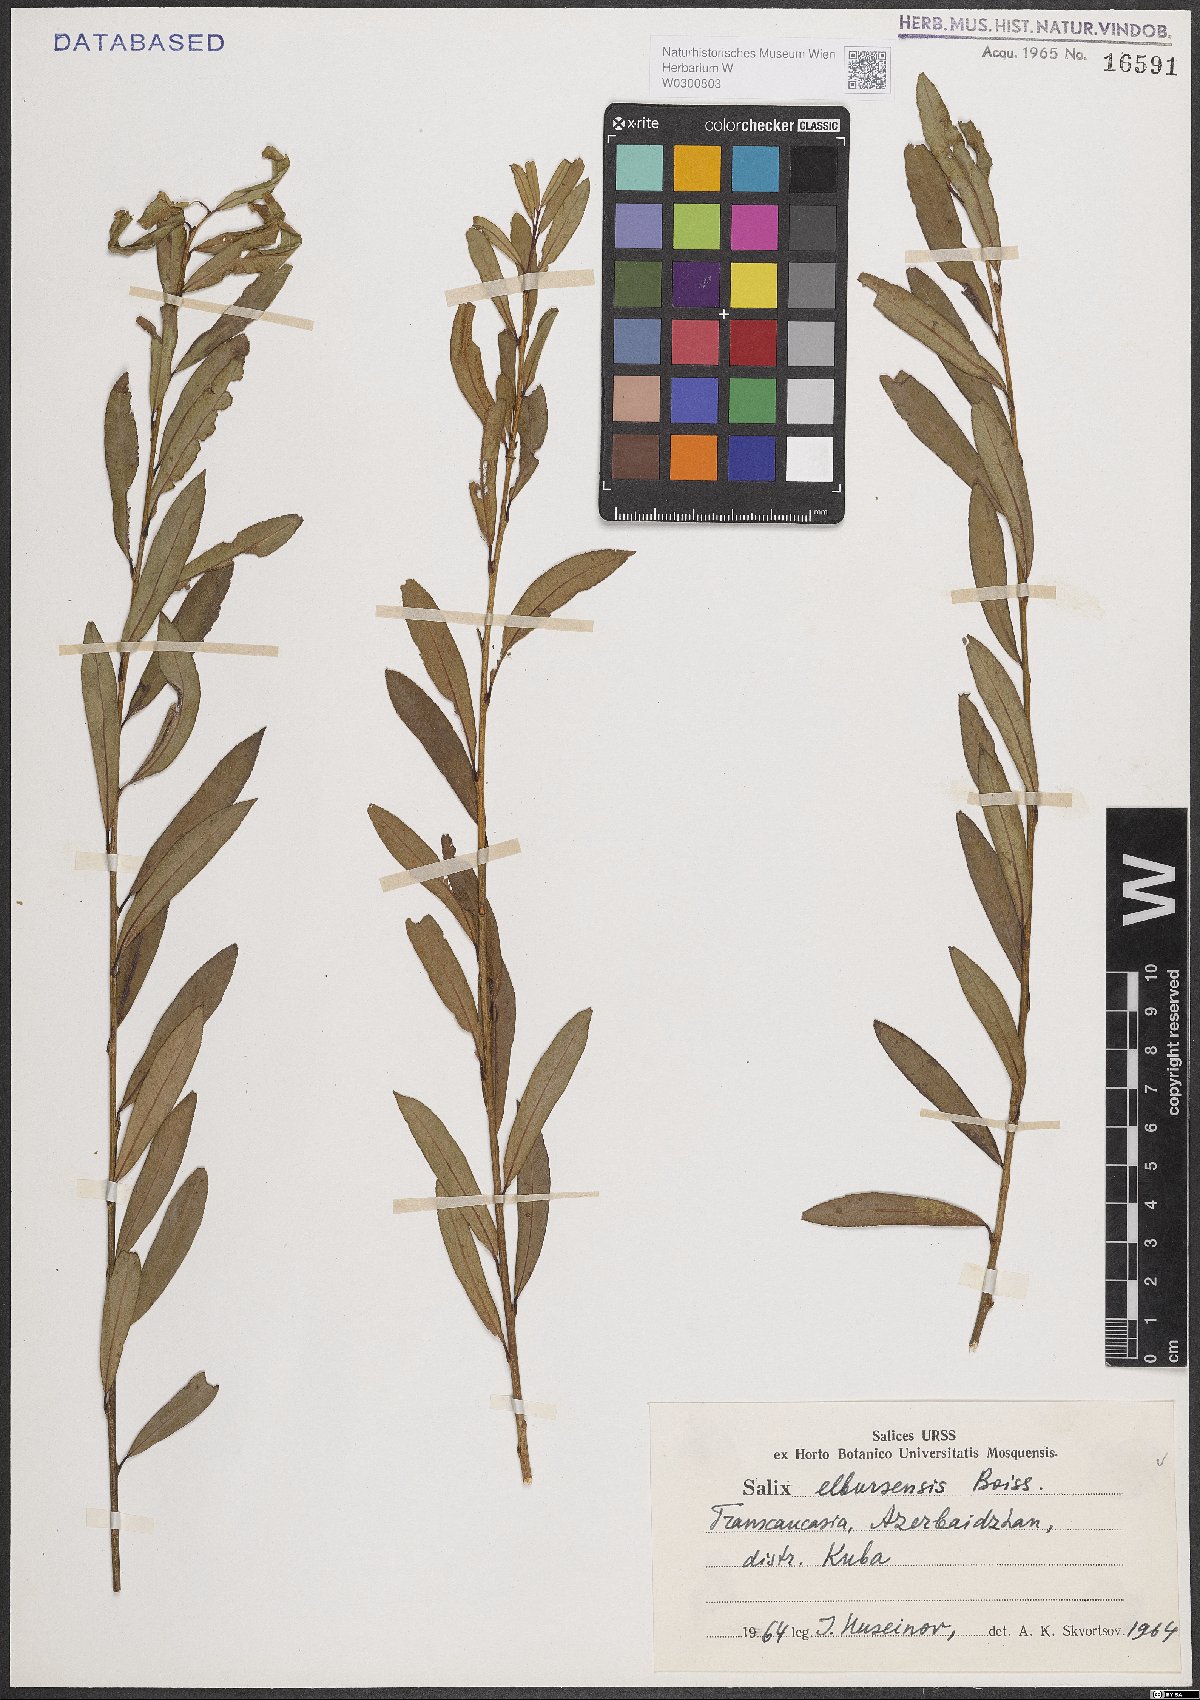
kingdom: Plantae
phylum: Tracheophyta
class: Magnoliopsida
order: Malpighiales
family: Salicaceae
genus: Salix
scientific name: Salix elbursensis
